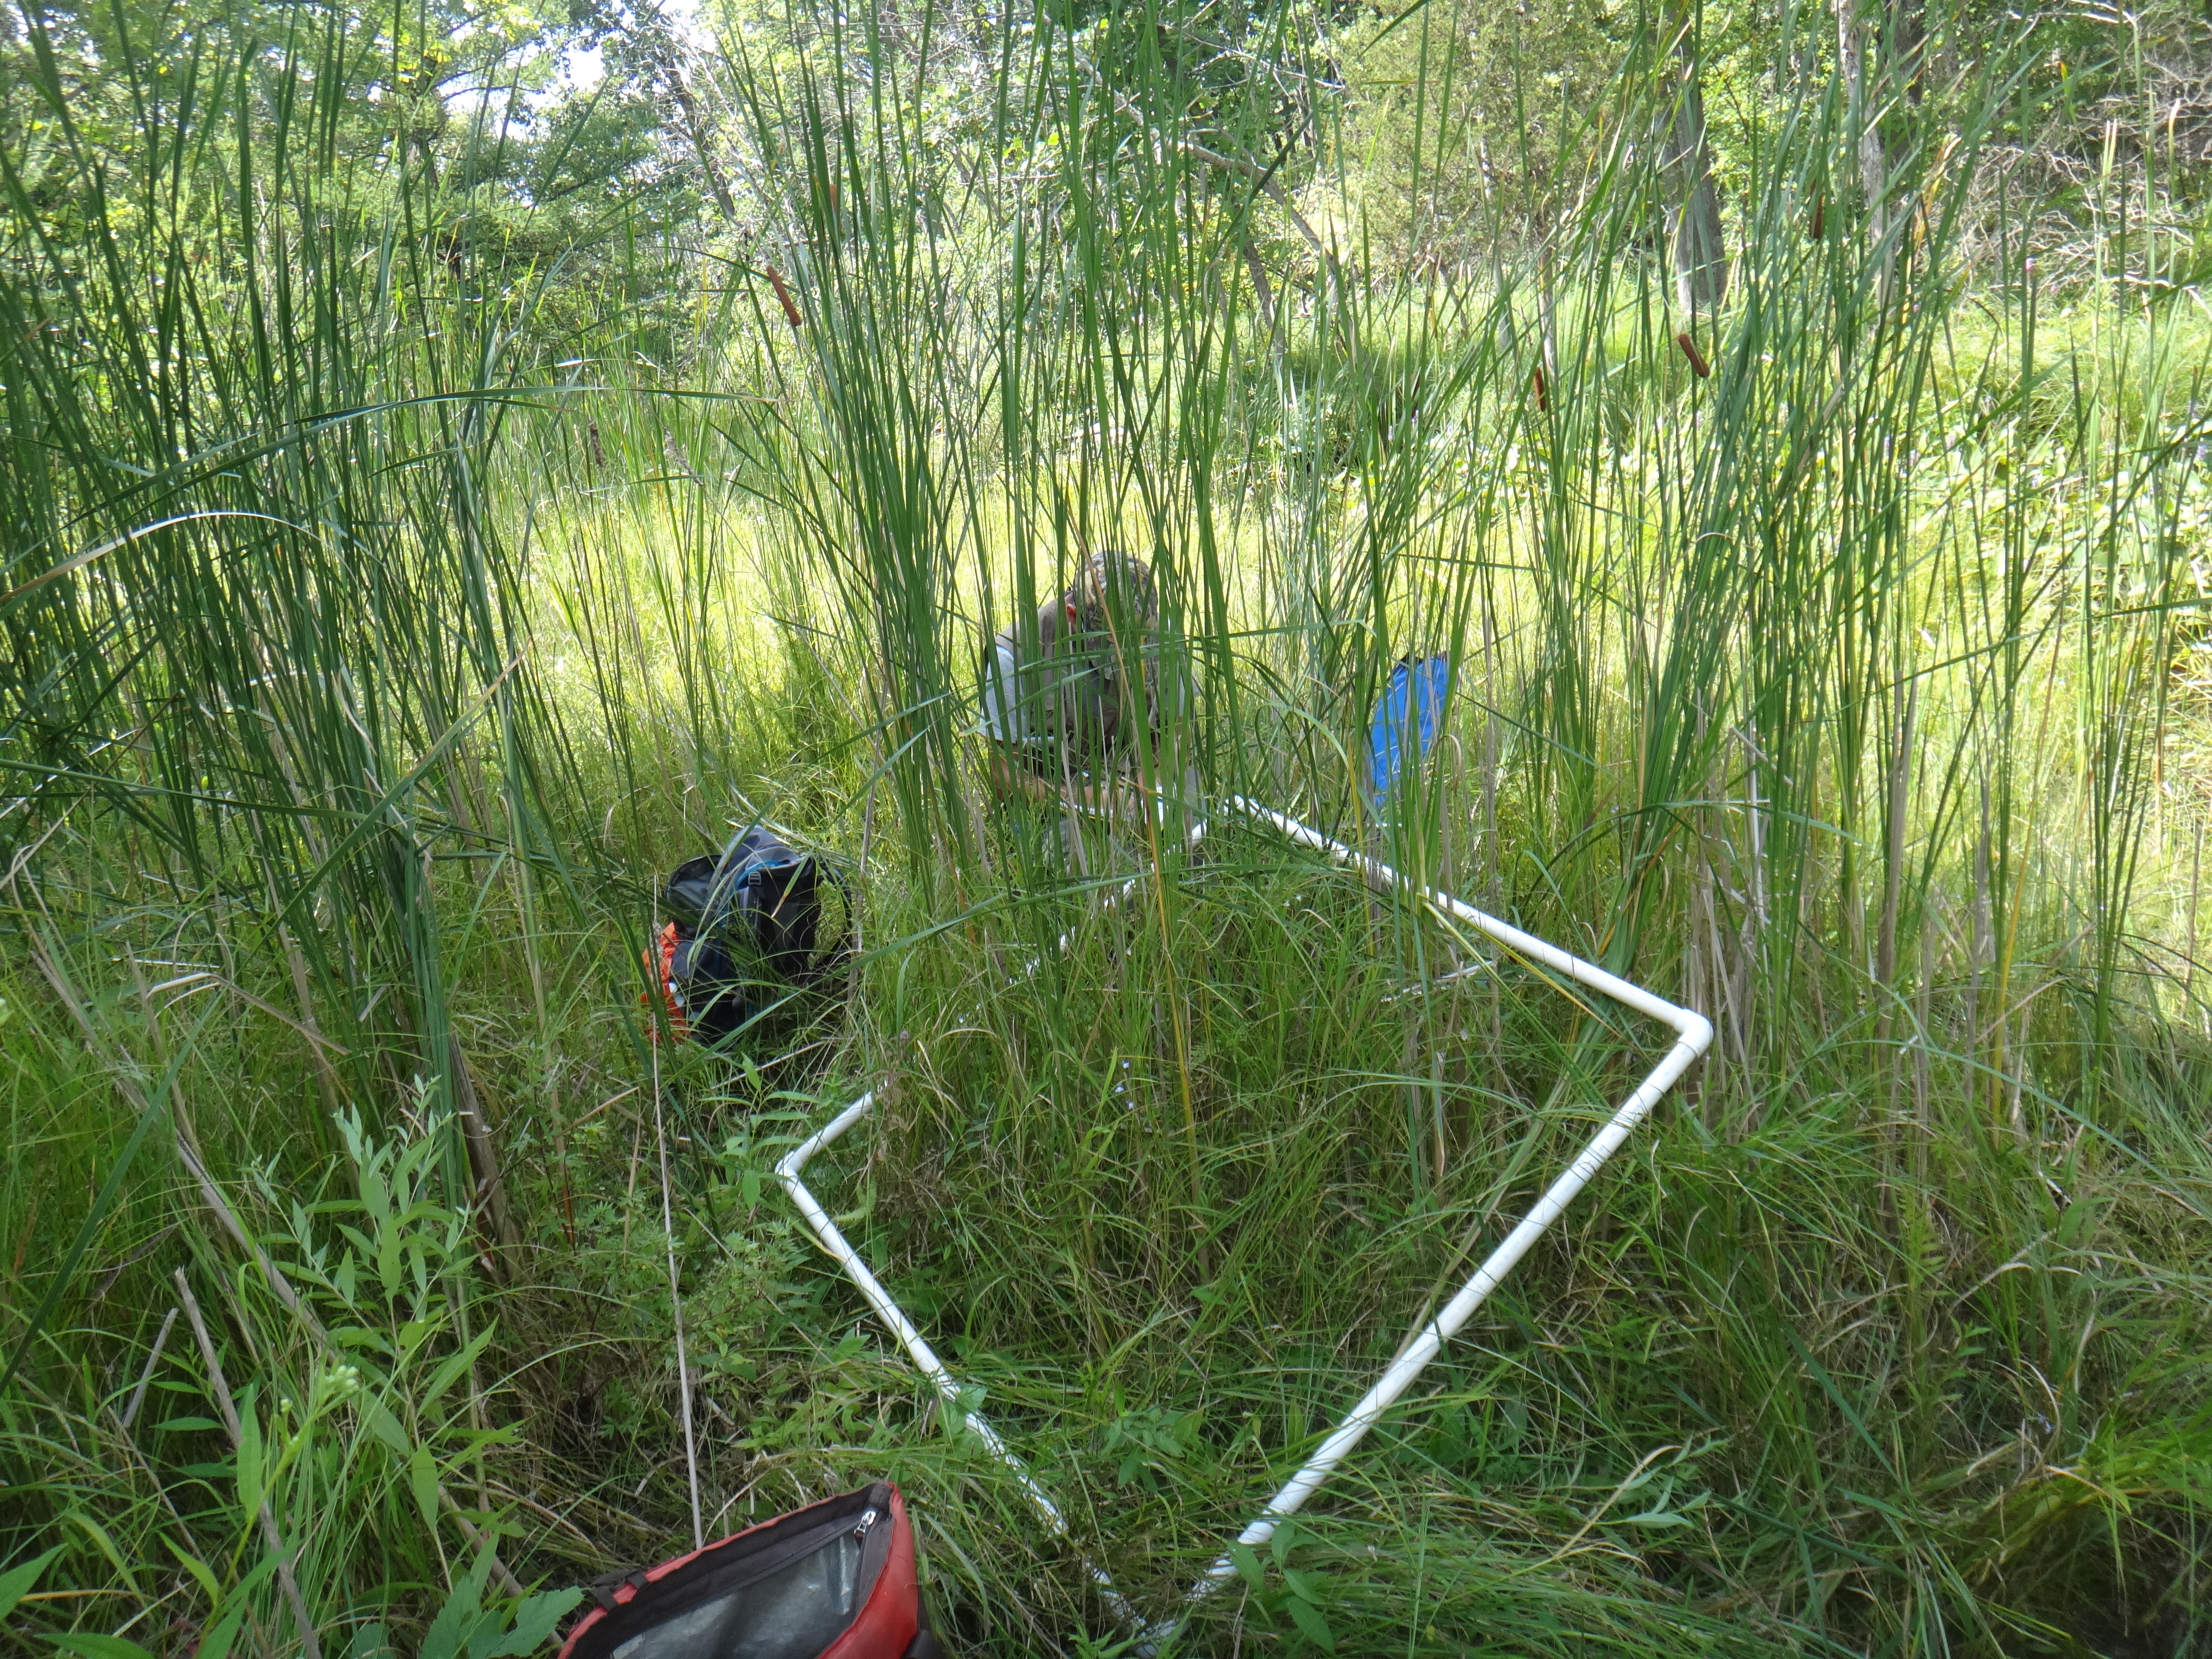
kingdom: Plantae
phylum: Tracheophyta
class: Liliopsida
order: Poales
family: Cyperaceae
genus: Carex
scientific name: Carex lasiocarpa
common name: Slender sedge
